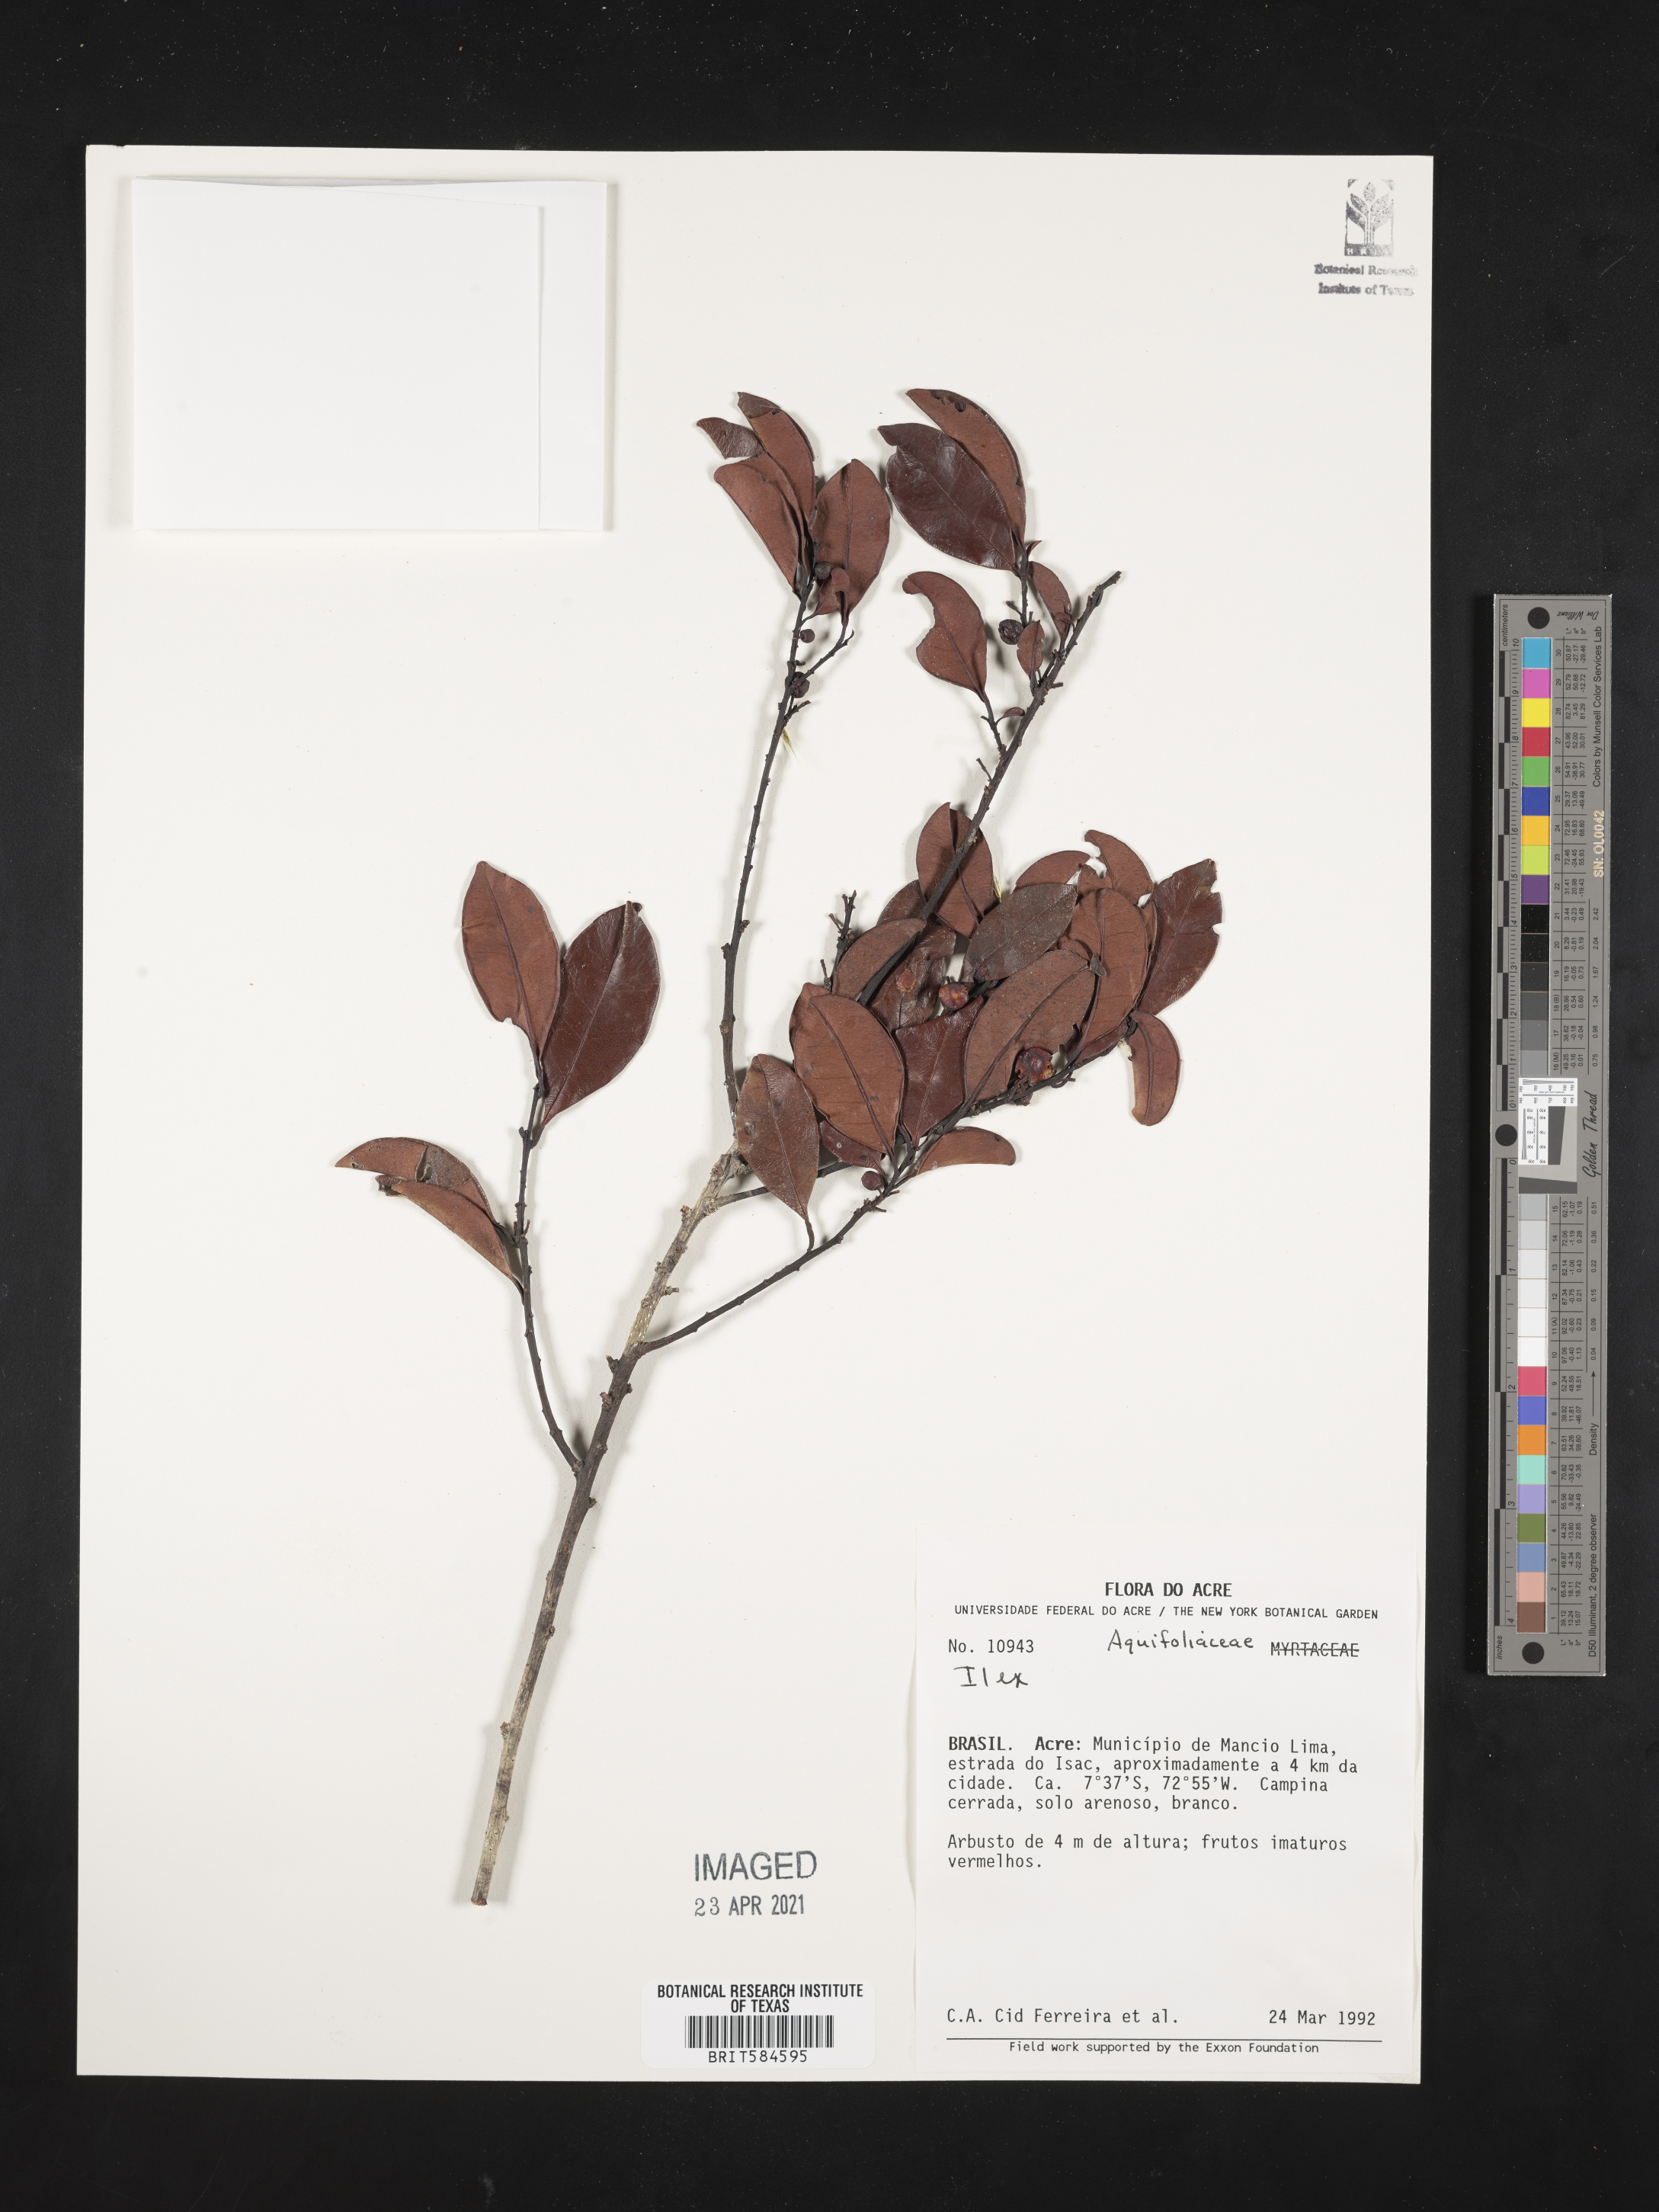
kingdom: Plantae
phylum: Tracheophyta
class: Magnoliopsida
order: Aquifoliales
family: Aquifoliaceae
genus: Ilex
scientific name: Ilex
